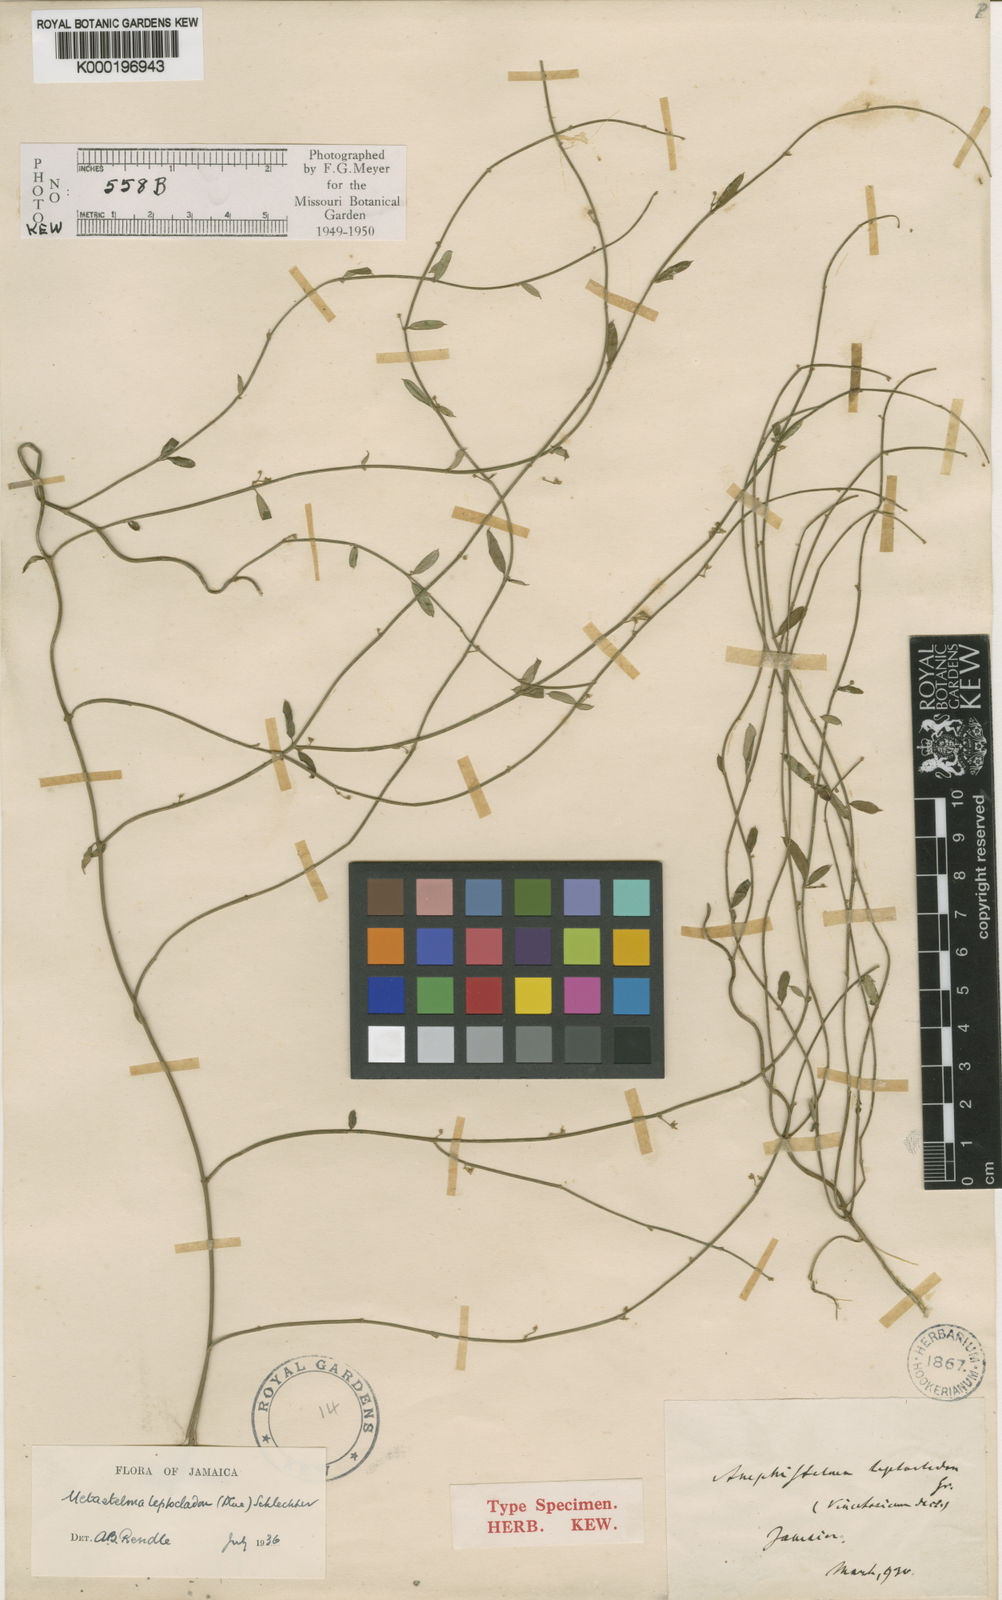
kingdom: Plantae
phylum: Tracheophyta
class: Magnoliopsida
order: Gentianales
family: Apocynaceae
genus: Orthosia
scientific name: Orthosia scoparia
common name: Leafless swallow-wort
